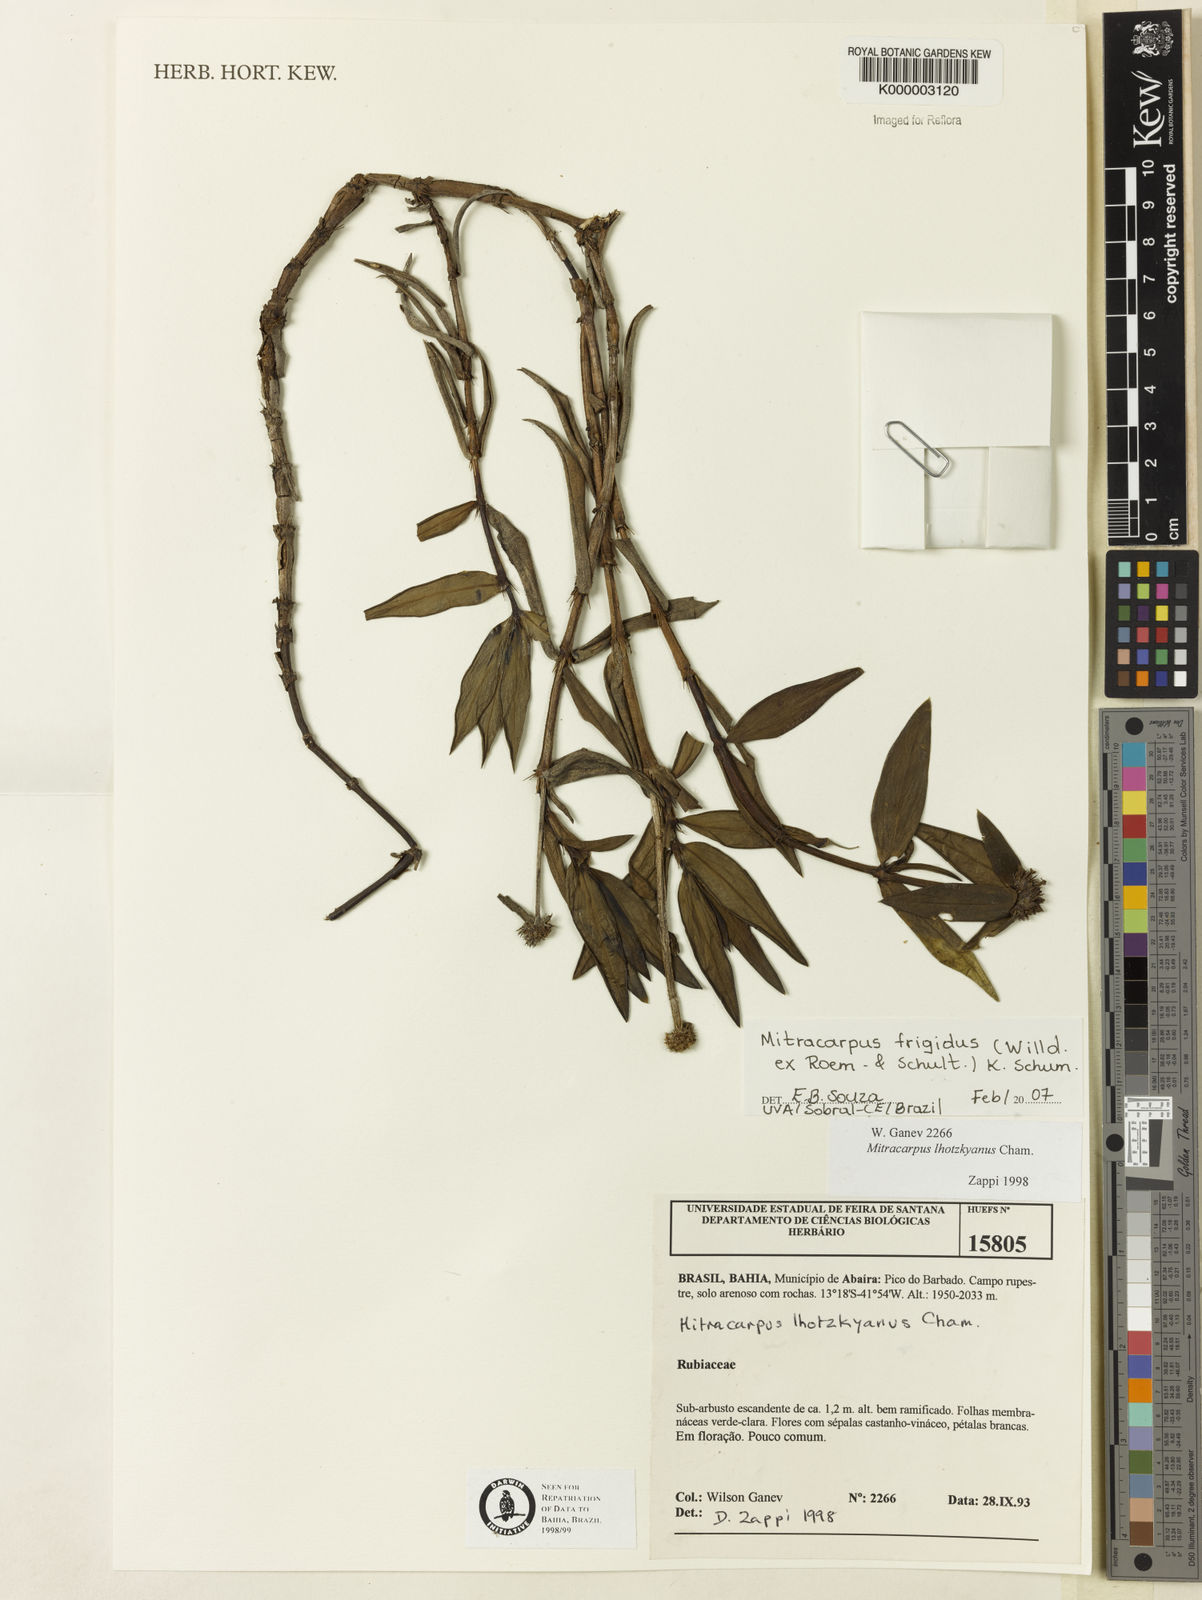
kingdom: Plantae
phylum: Tracheophyta
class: Magnoliopsida
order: Gentianales
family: Rubiaceae
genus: Mitracarpus
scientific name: Mitracarpus frigidus
